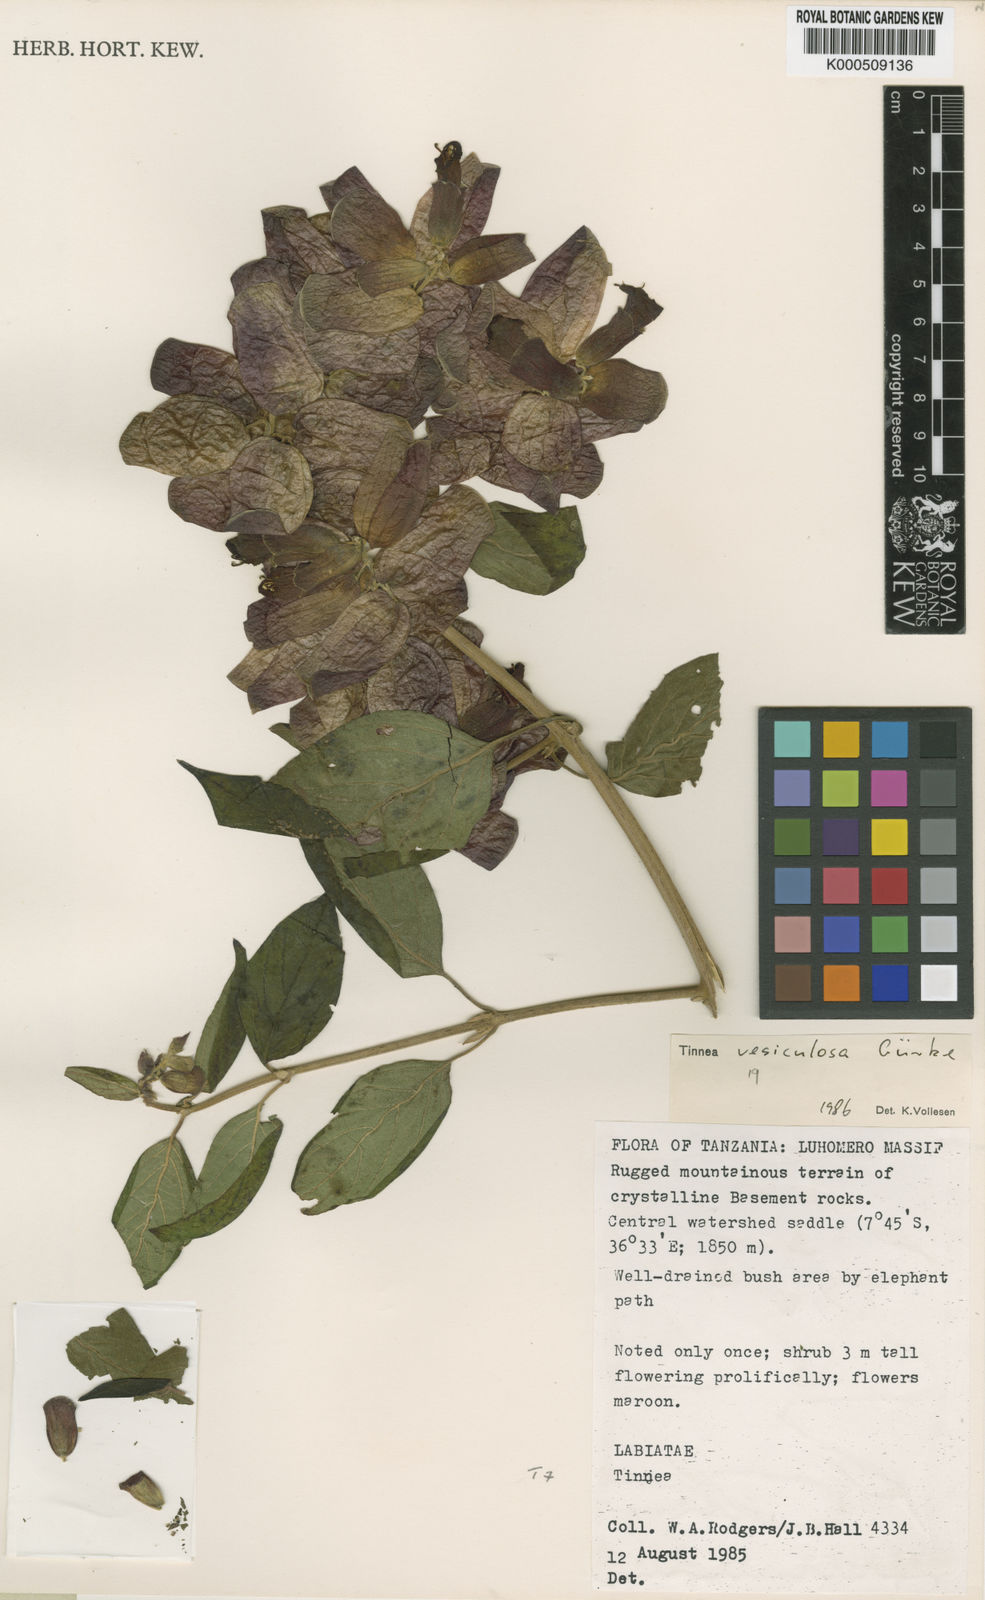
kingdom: Plantae
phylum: Tracheophyta
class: Magnoliopsida
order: Lamiales
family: Lamiaceae
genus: Tinnea
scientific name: Tinnea
